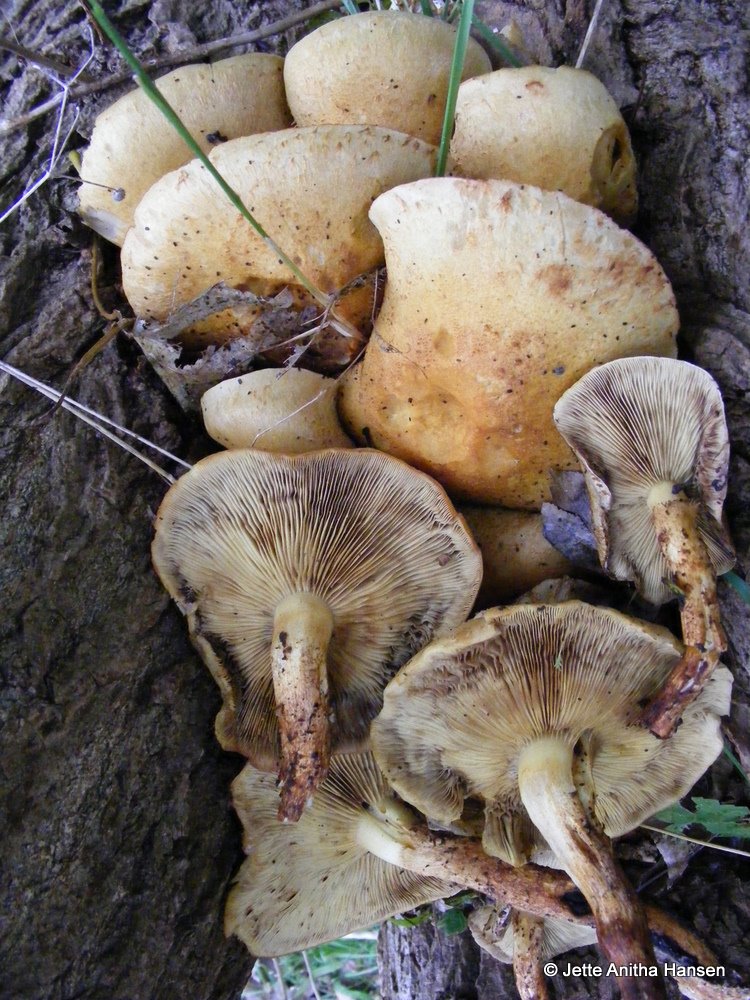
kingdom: Fungi
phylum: Basidiomycota
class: Agaricomycetes
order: Agaricales
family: Strophariaceae
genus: Pholiota
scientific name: Pholiota squarrosa
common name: krumskællet skælhat
